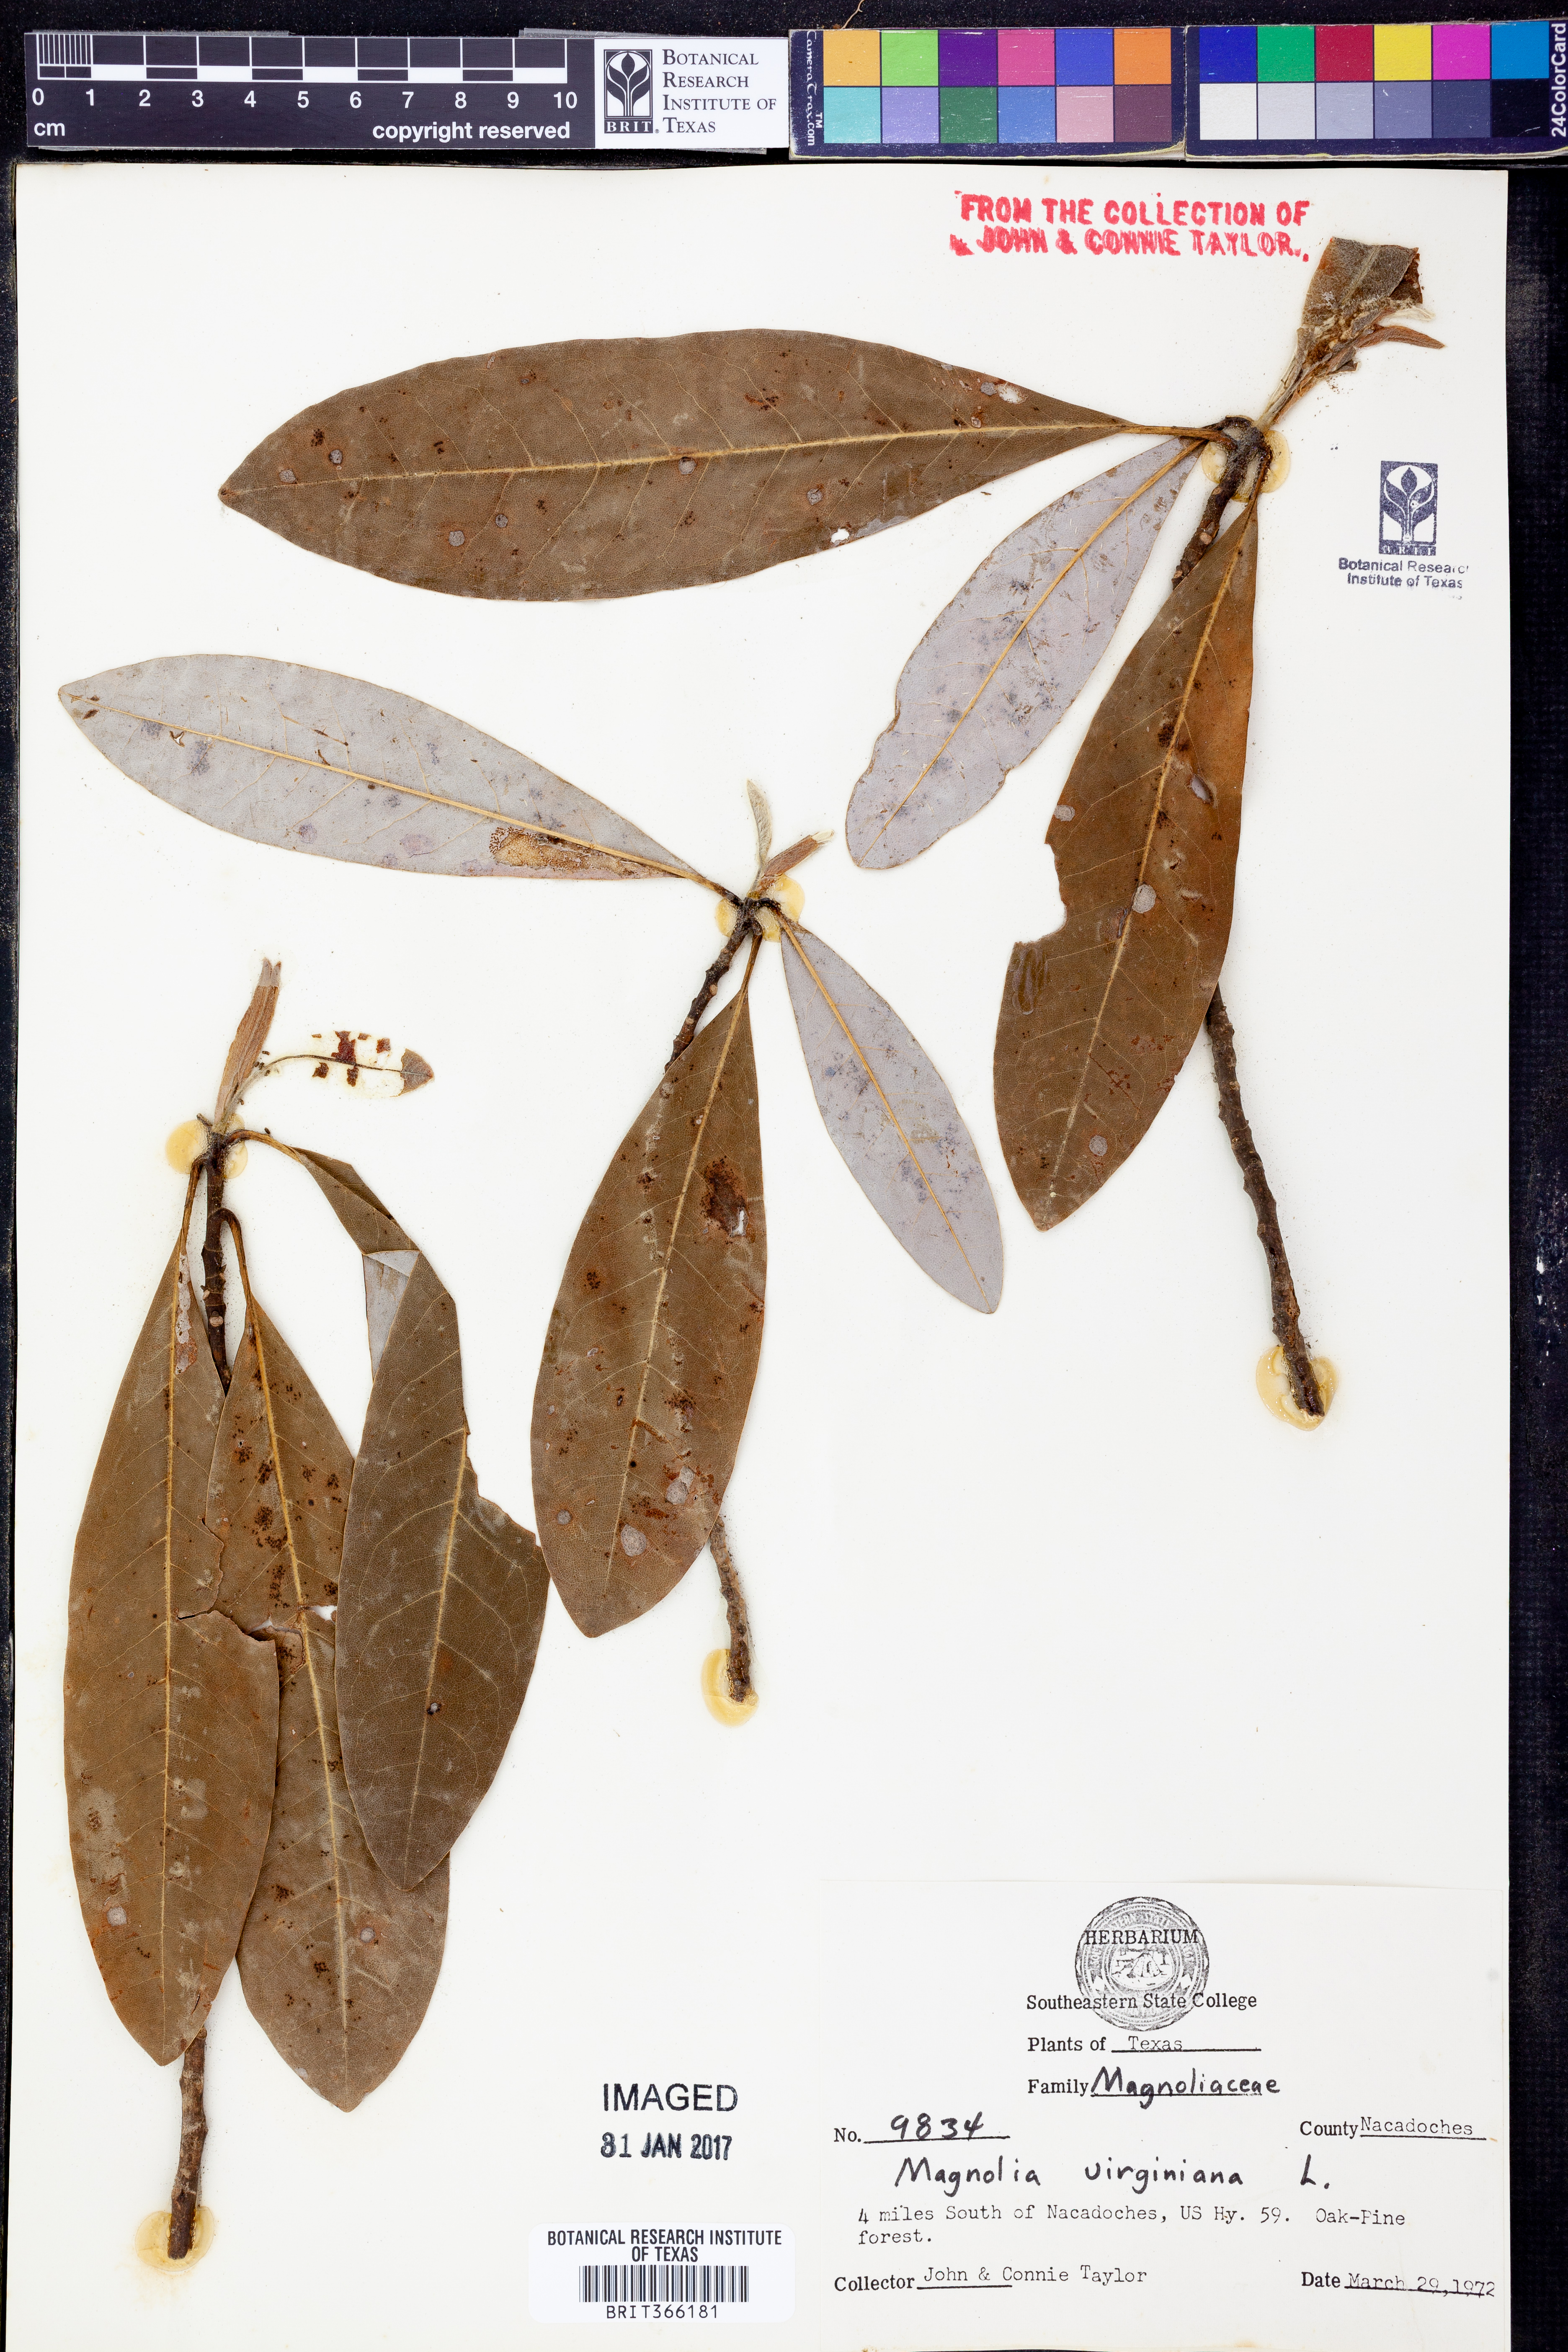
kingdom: Plantae
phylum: Tracheophyta
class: Magnoliopsida
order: Magnoliales
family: Magnoliaceae
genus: Magnolia
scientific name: Magnolia virginiana
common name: Swamp bay
